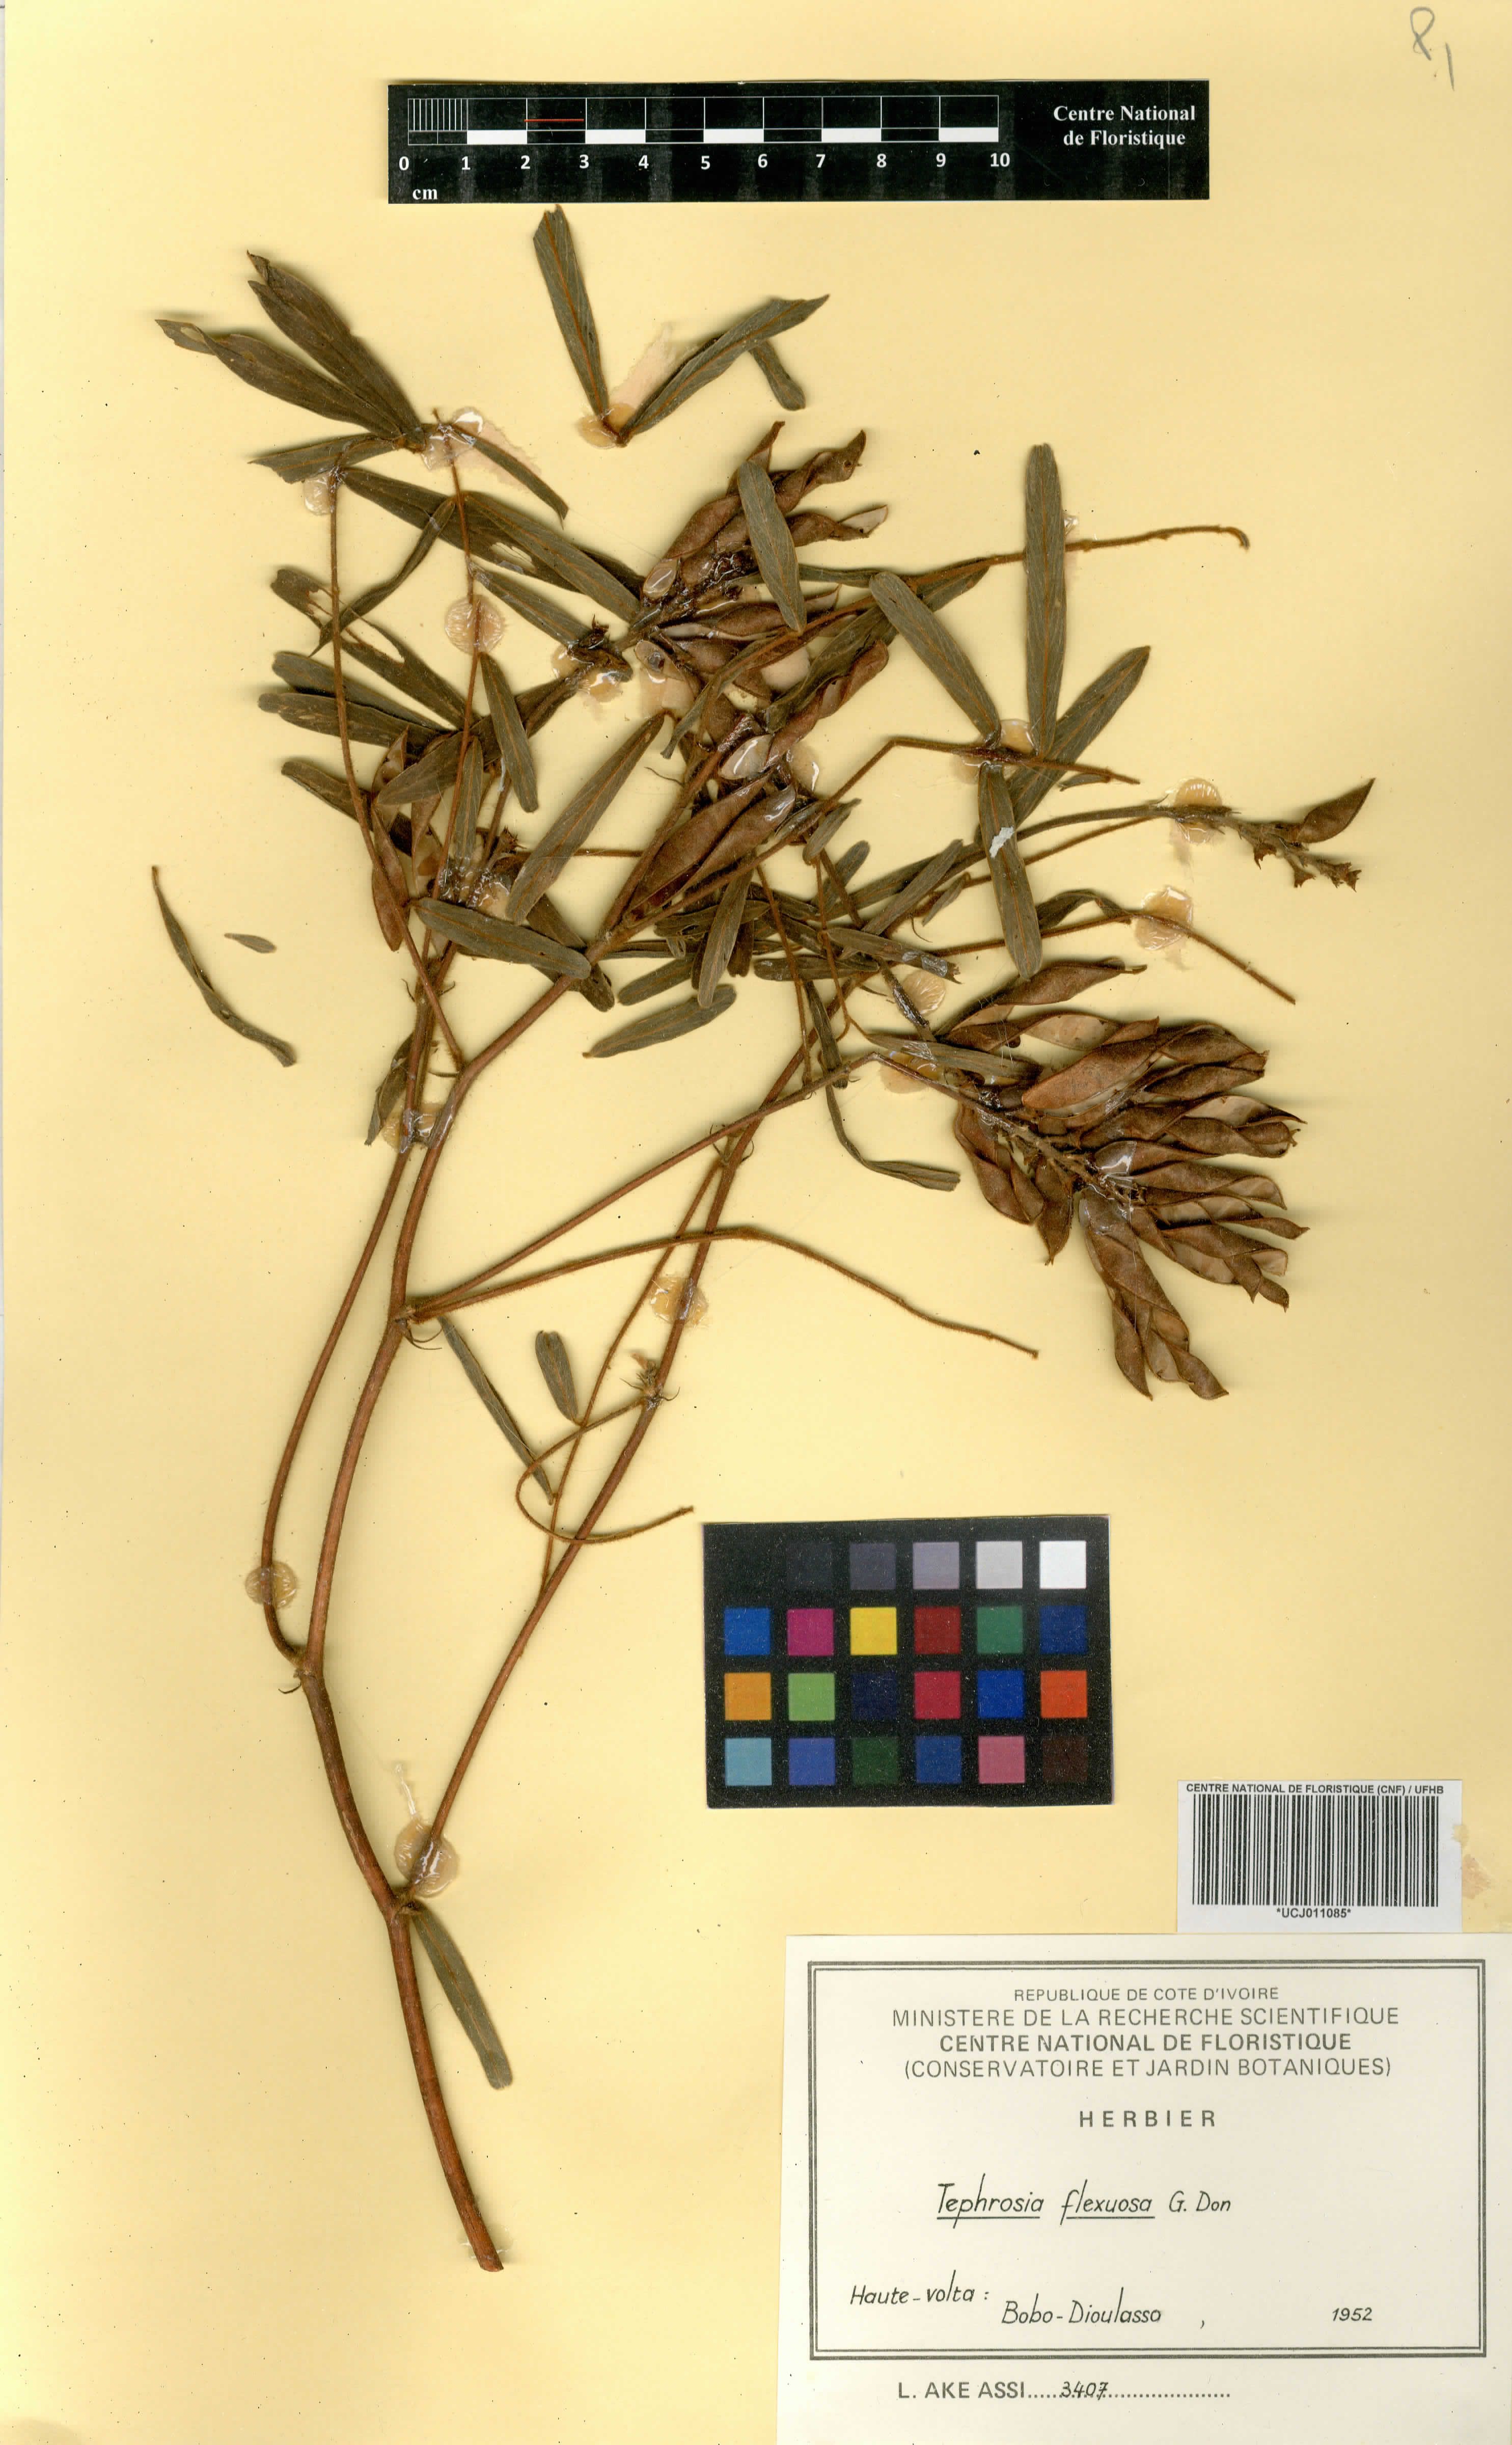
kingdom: Plantae
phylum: Tracheophyta
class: Magnoliopsida
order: Fabales
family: Fabaceae
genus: Tephrosia
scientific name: Tephrosia flexuosa
